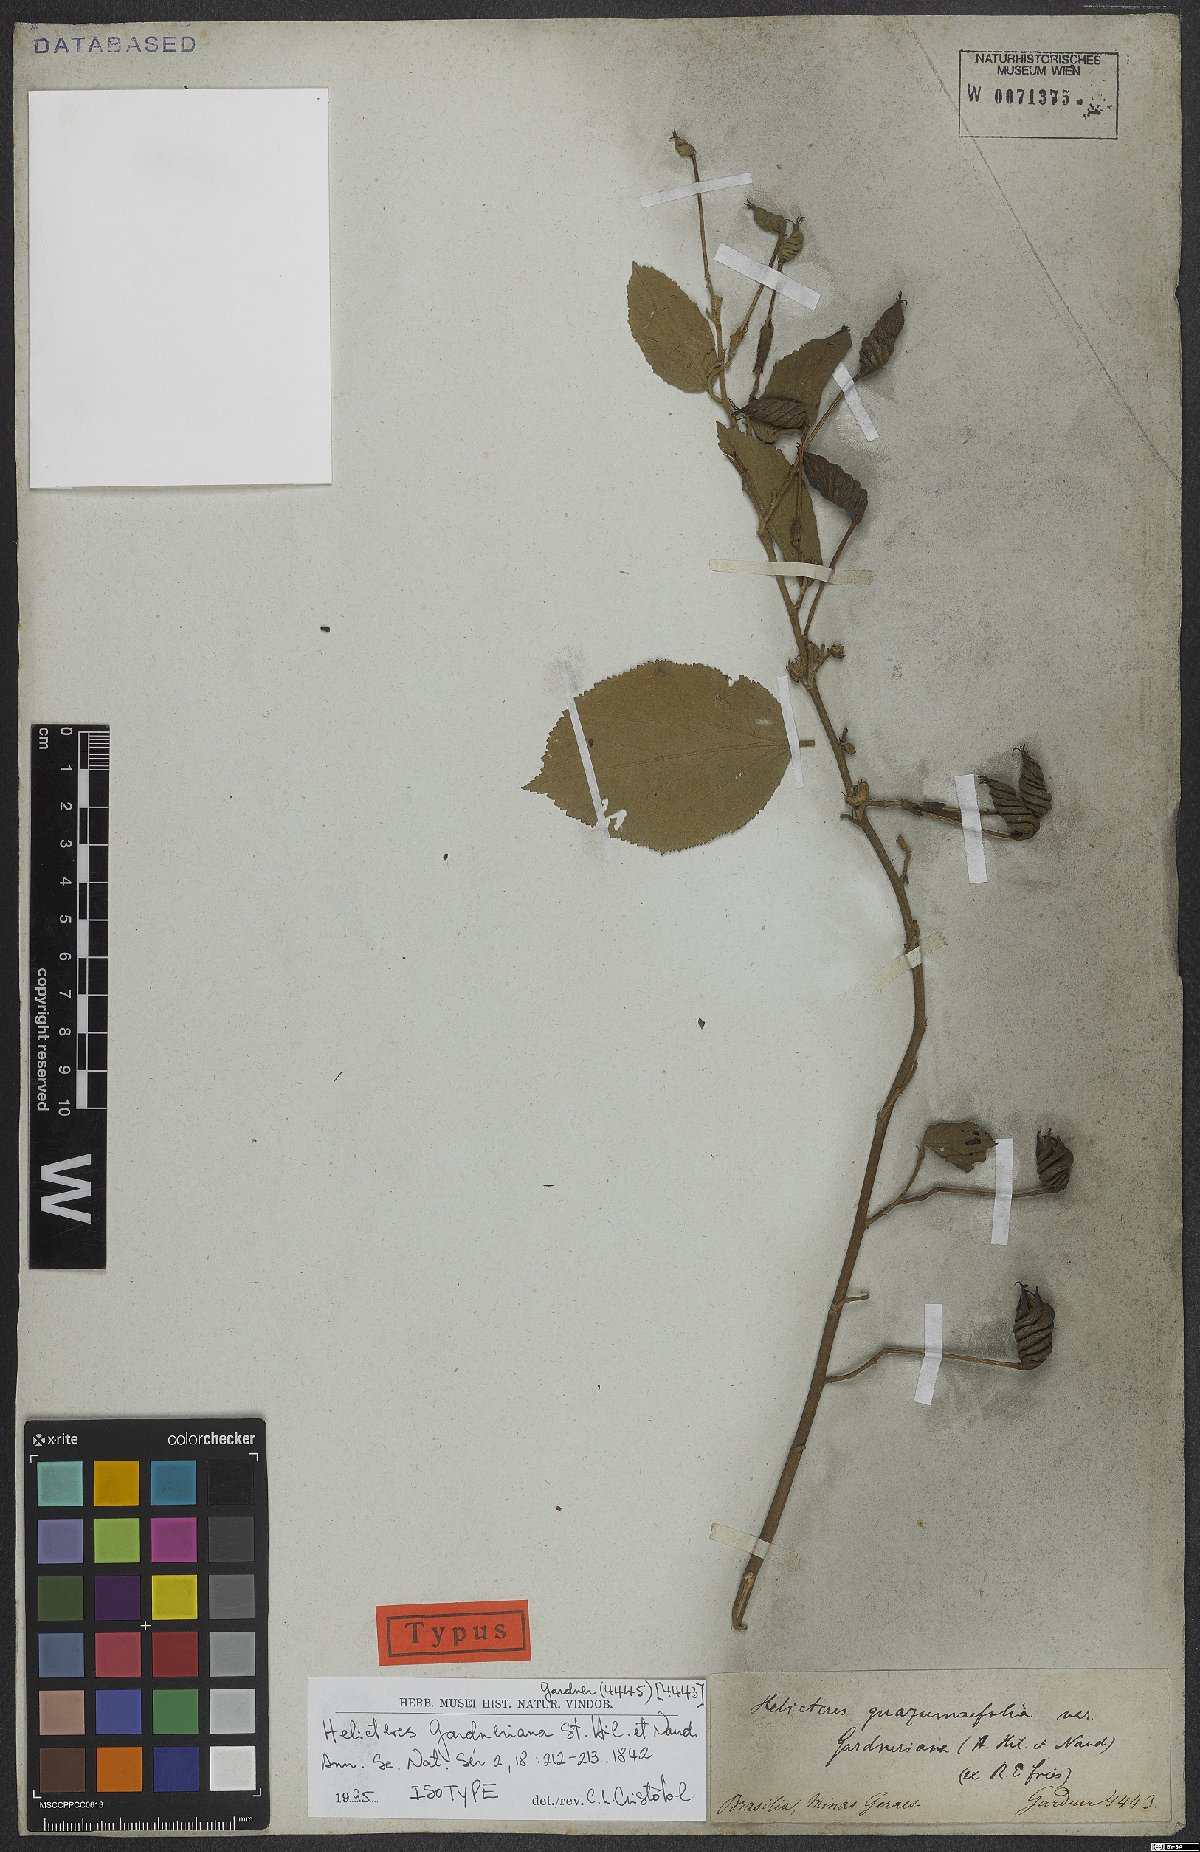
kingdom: Plantae
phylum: Tracheophyta
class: Magnoliopsida
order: Malvales
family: Malvaceae
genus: Helicteres
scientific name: Helicteres gardneriana
